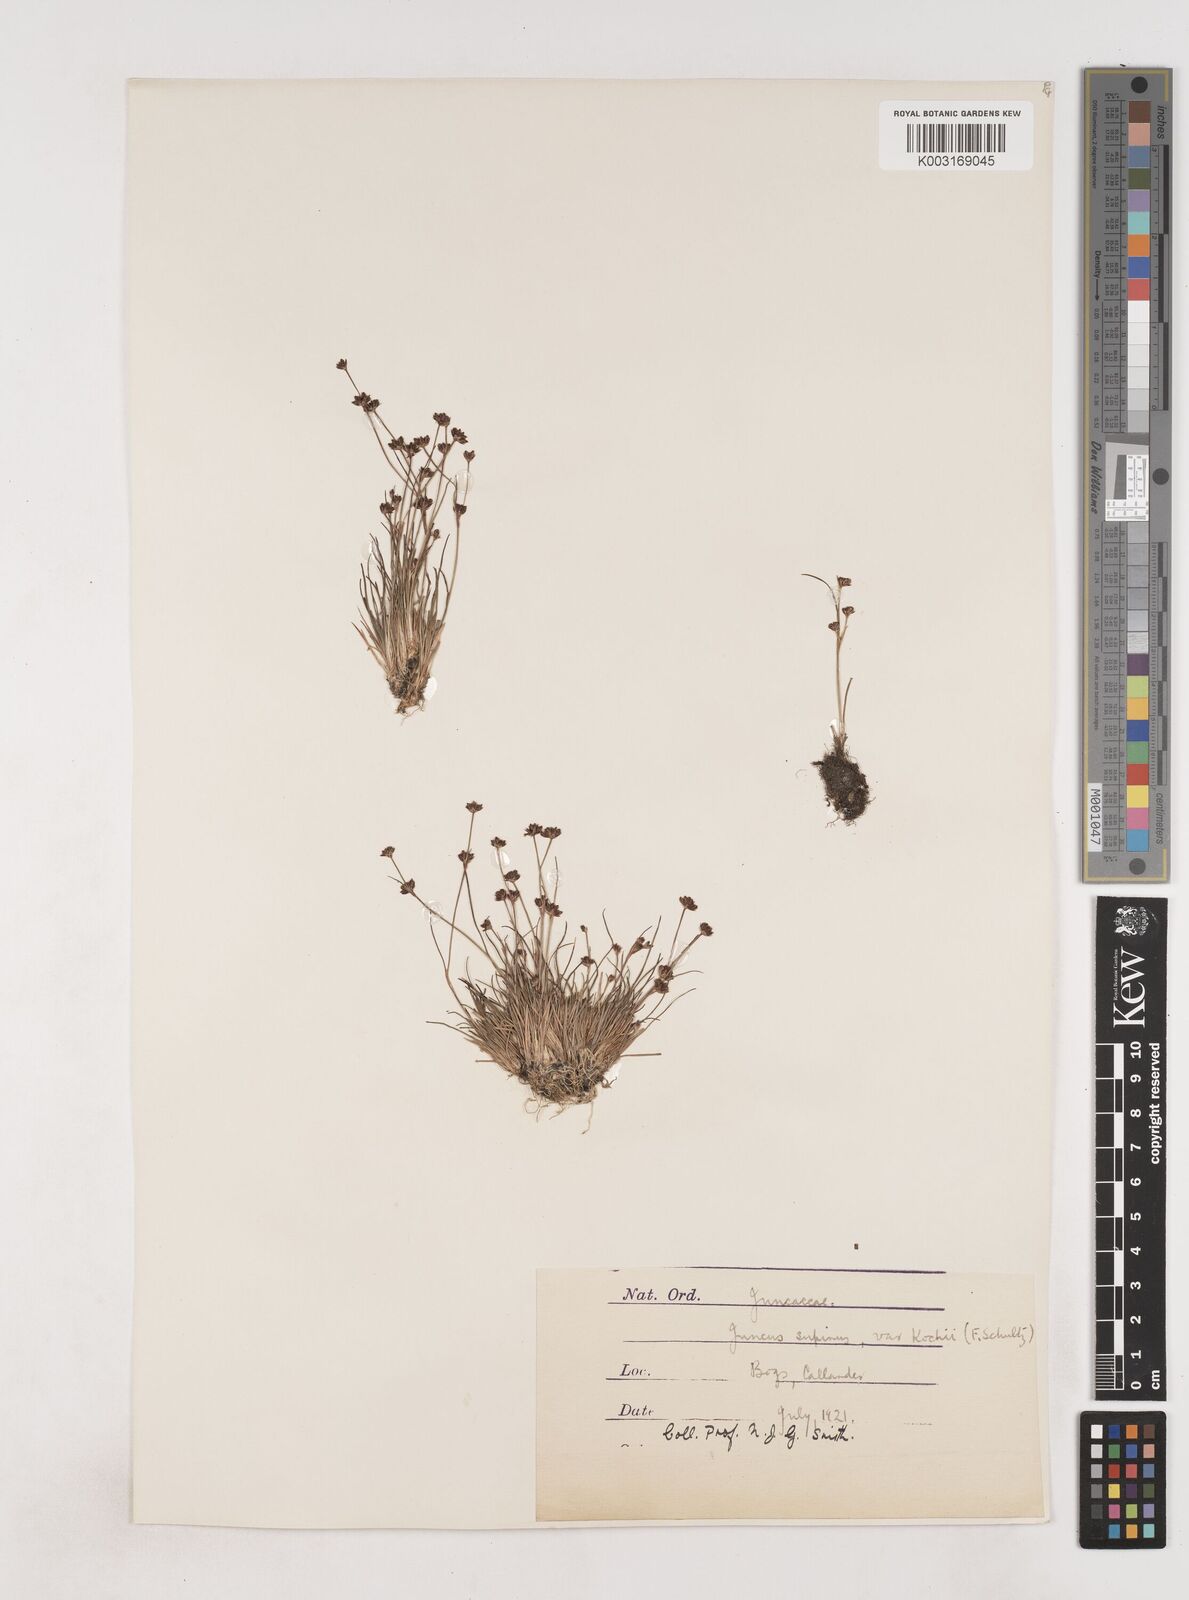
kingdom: Plantae
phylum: Tracheophyta
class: Liliopsida
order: Poales
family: Juncaceae
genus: Juncus
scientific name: Juncus bulbosus
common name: Bulbous rush
